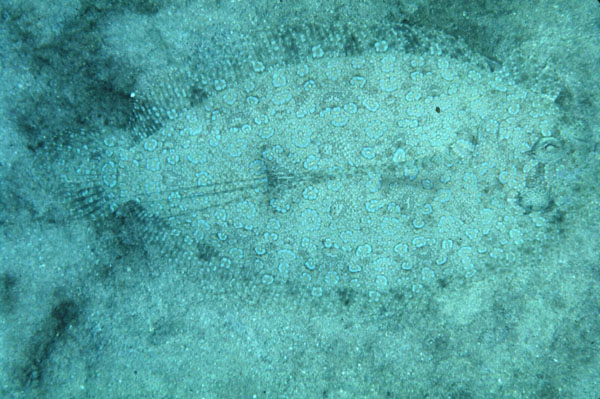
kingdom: Animalia
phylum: Chordata
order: Pleuronectiformes
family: Bothidae
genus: Bothus
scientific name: Bothus pantherinus
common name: Leopard flounder
